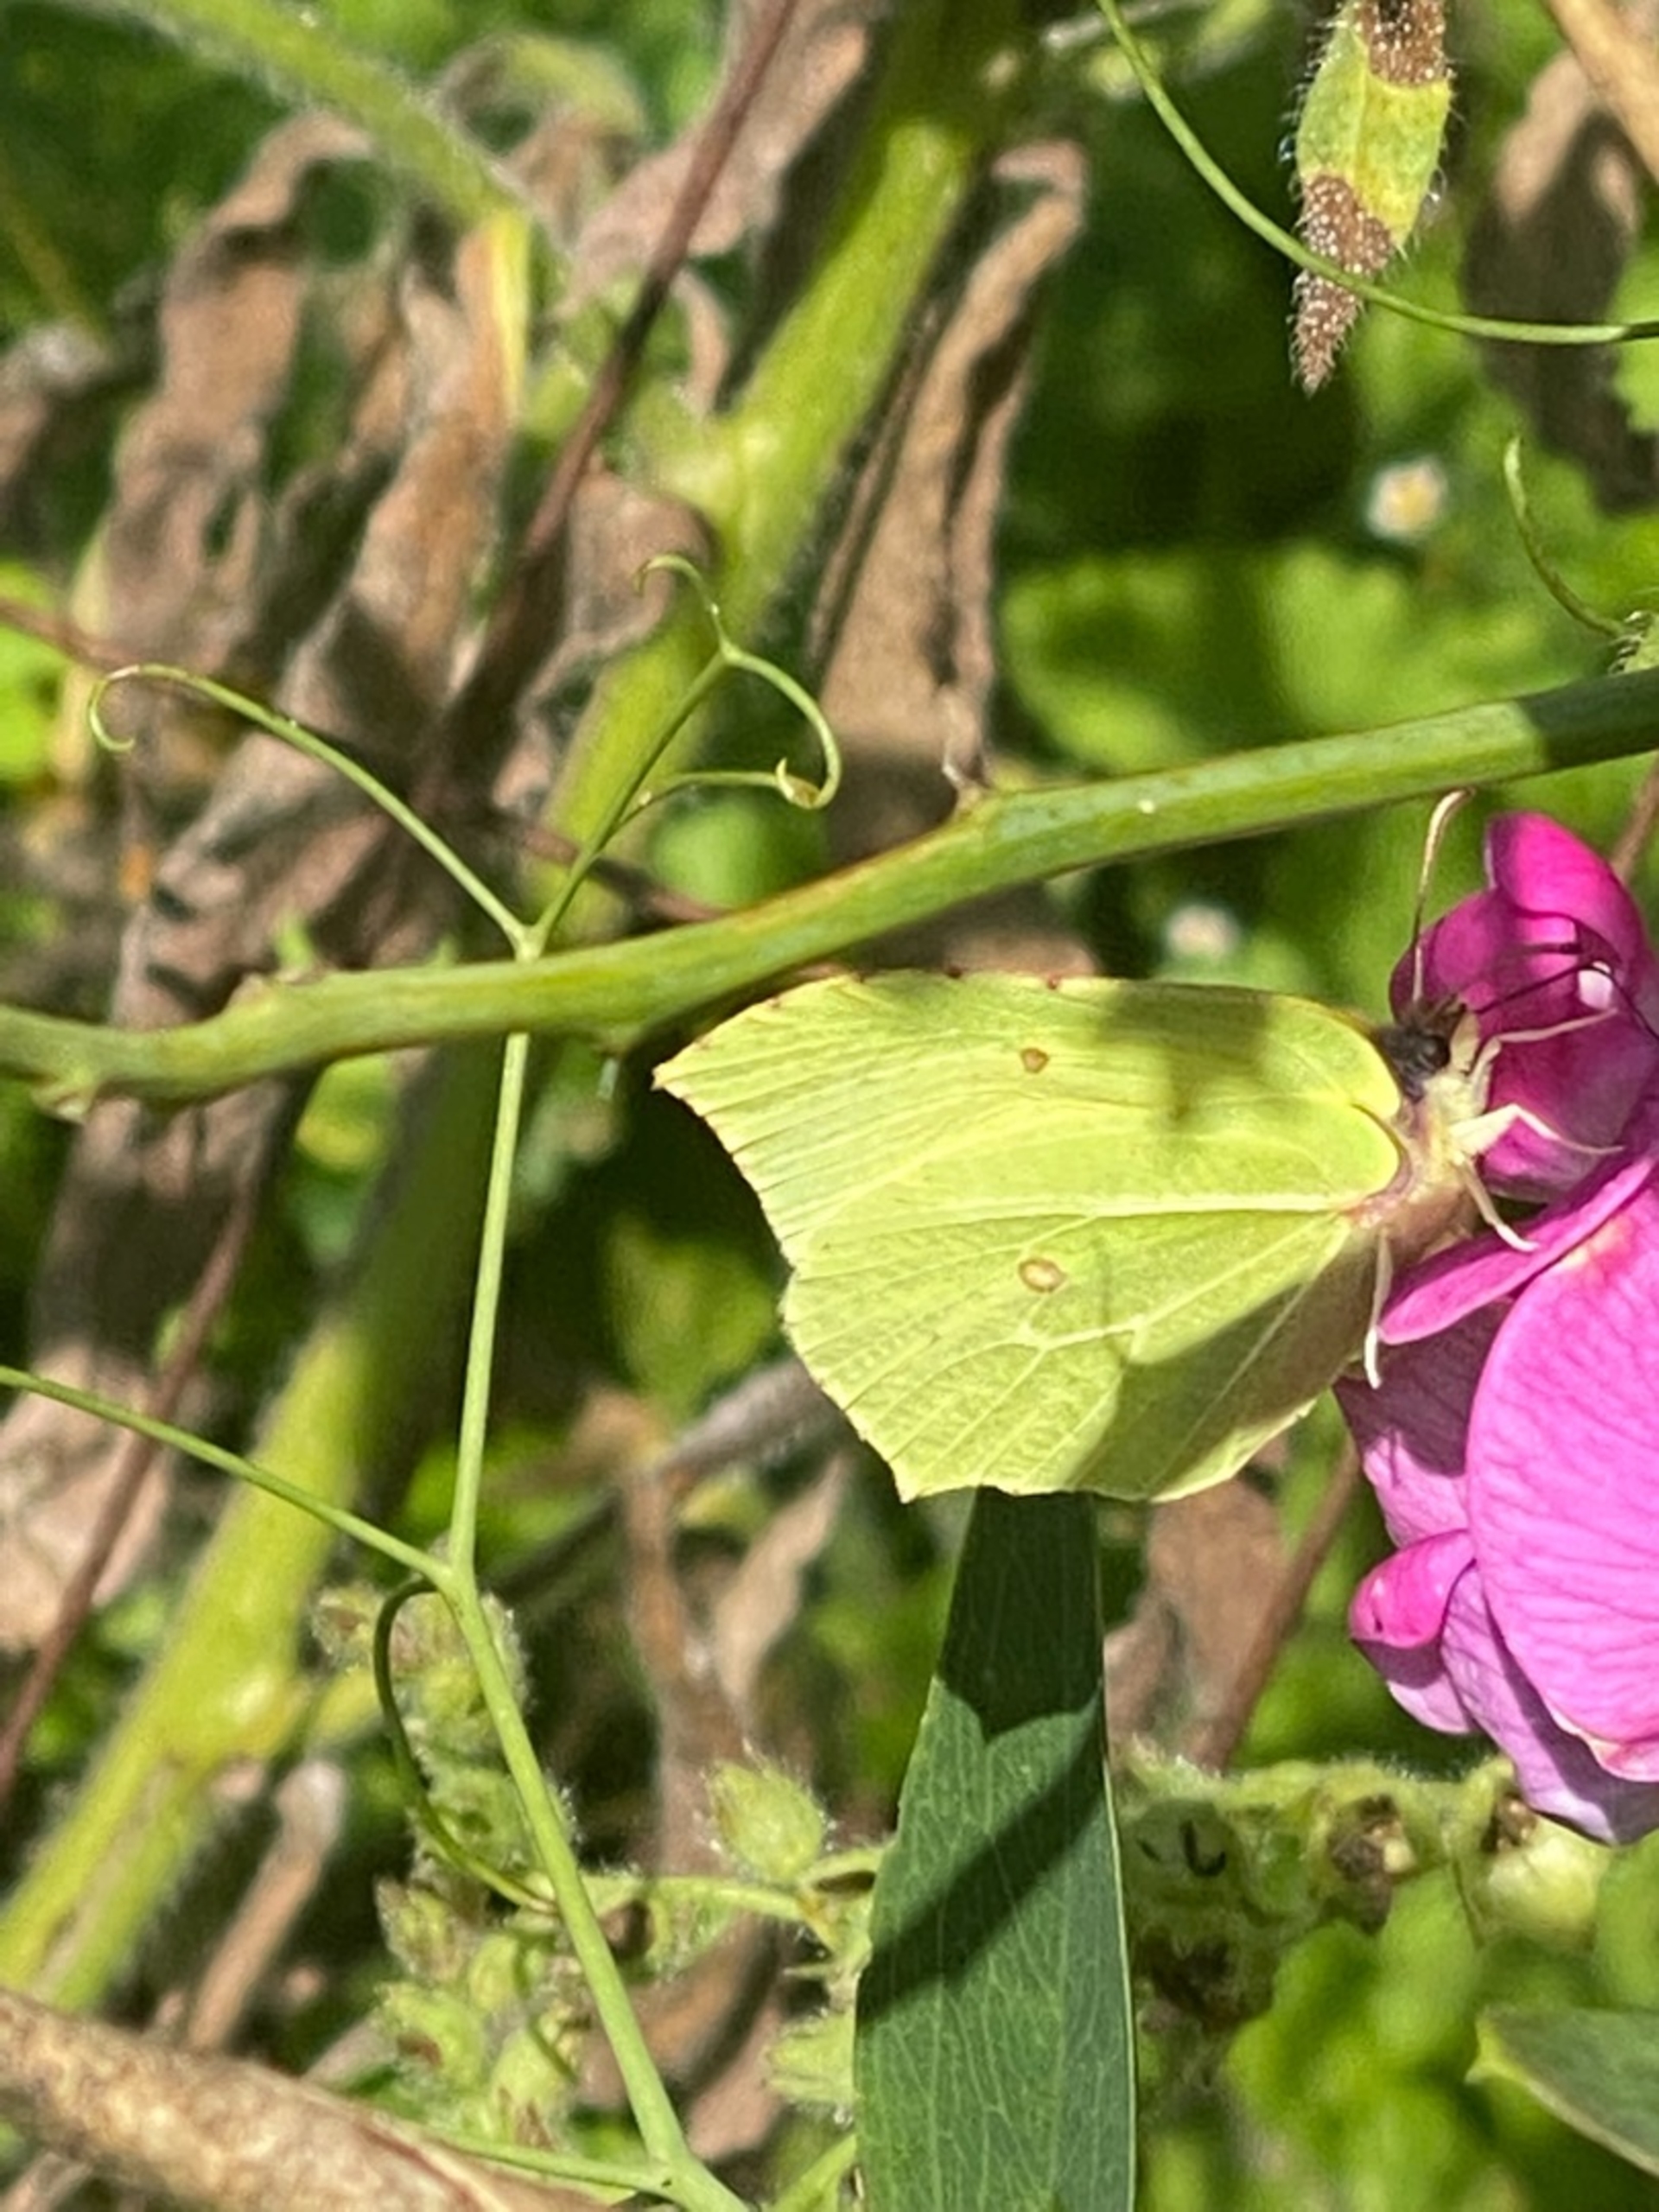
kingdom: Animalia
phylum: Arthropoda
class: Insecta
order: Lepidoptera
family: Pieridae
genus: Gonepteryx
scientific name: Gonepteryx rhamni
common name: Citronsommerfugl
